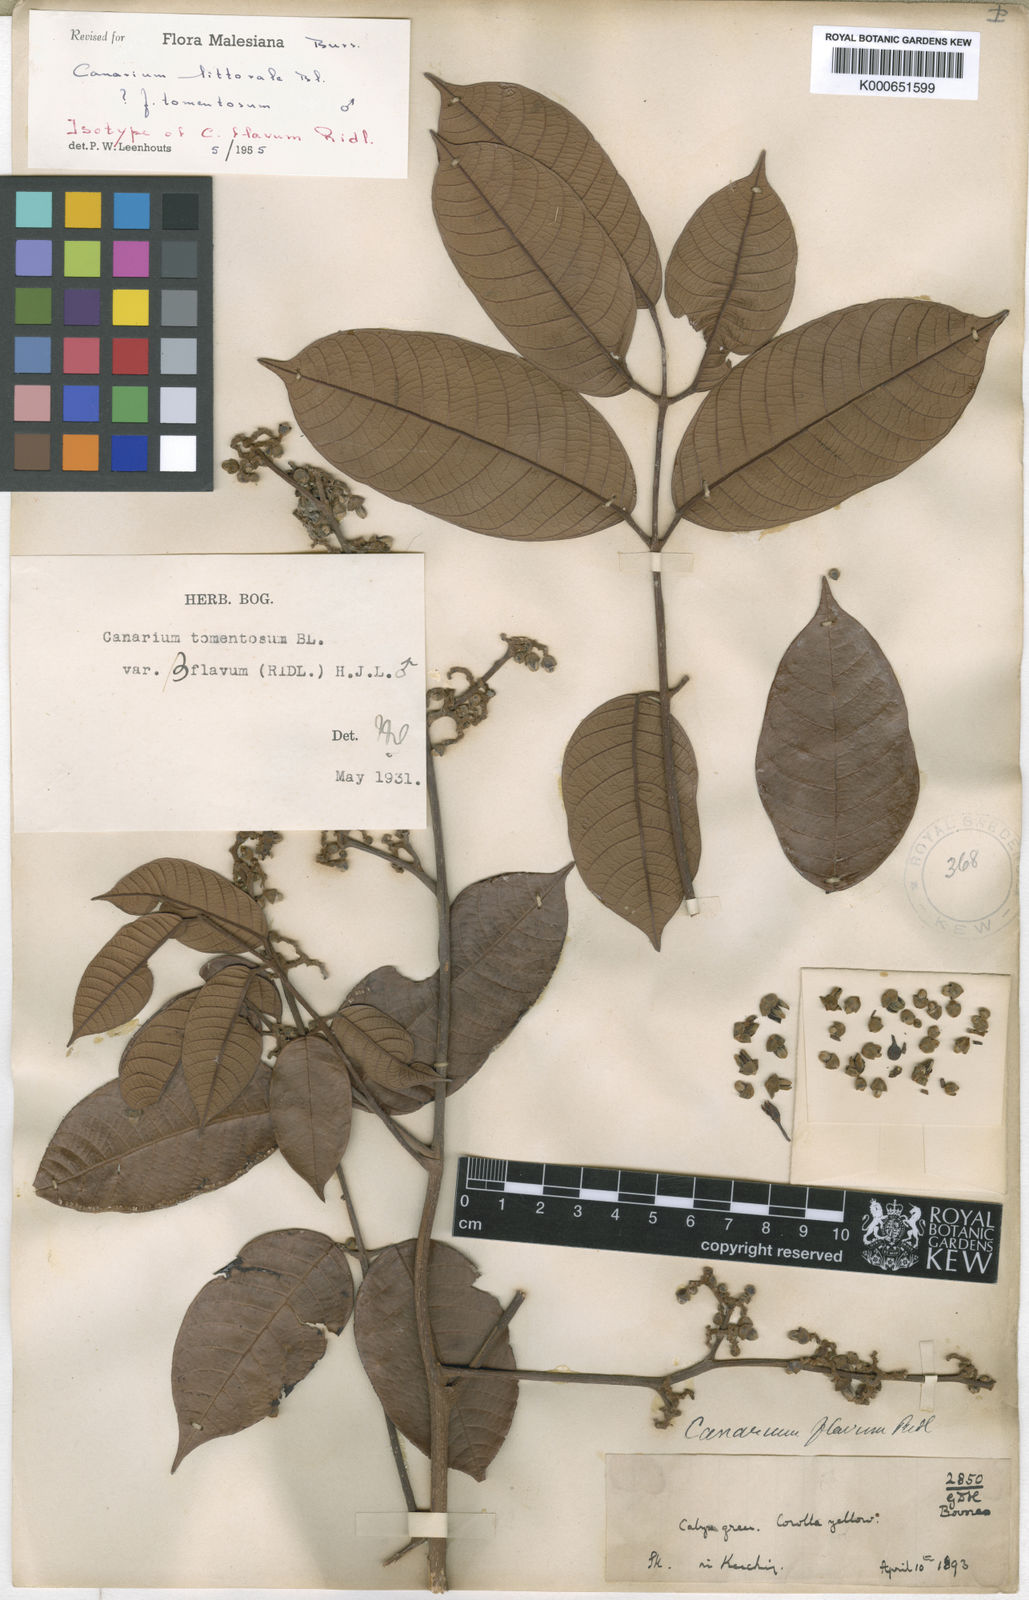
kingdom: Plantae
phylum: Tracheophyta
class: Magnoliopsida
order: Sapindales
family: Burseraceae
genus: Canarium
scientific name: Canarium littorale
